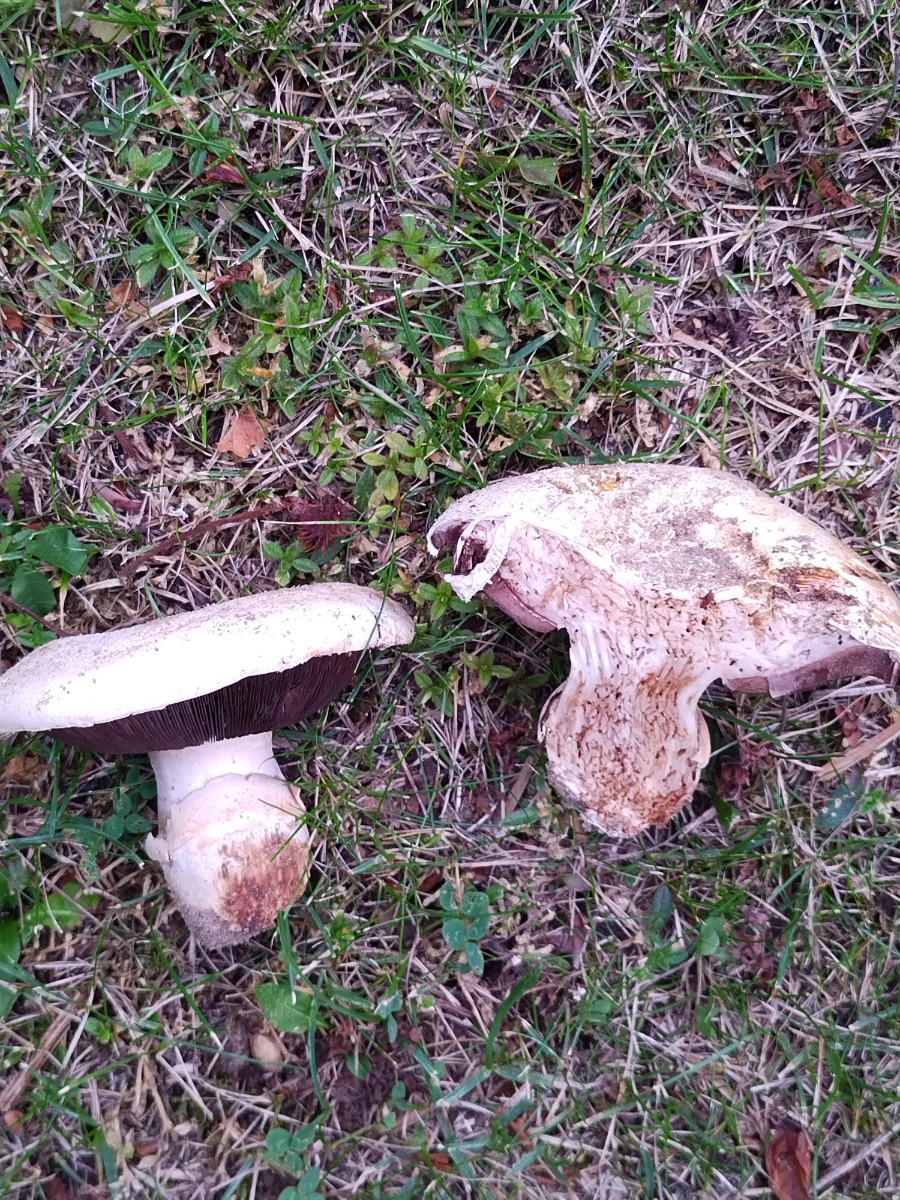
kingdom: Fungi
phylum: Basidiomycota
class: Agaricomycetes
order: Agaricales
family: Agaricaceae
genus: Agaricus
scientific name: Agaricus bitorquis
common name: vej-champignon
